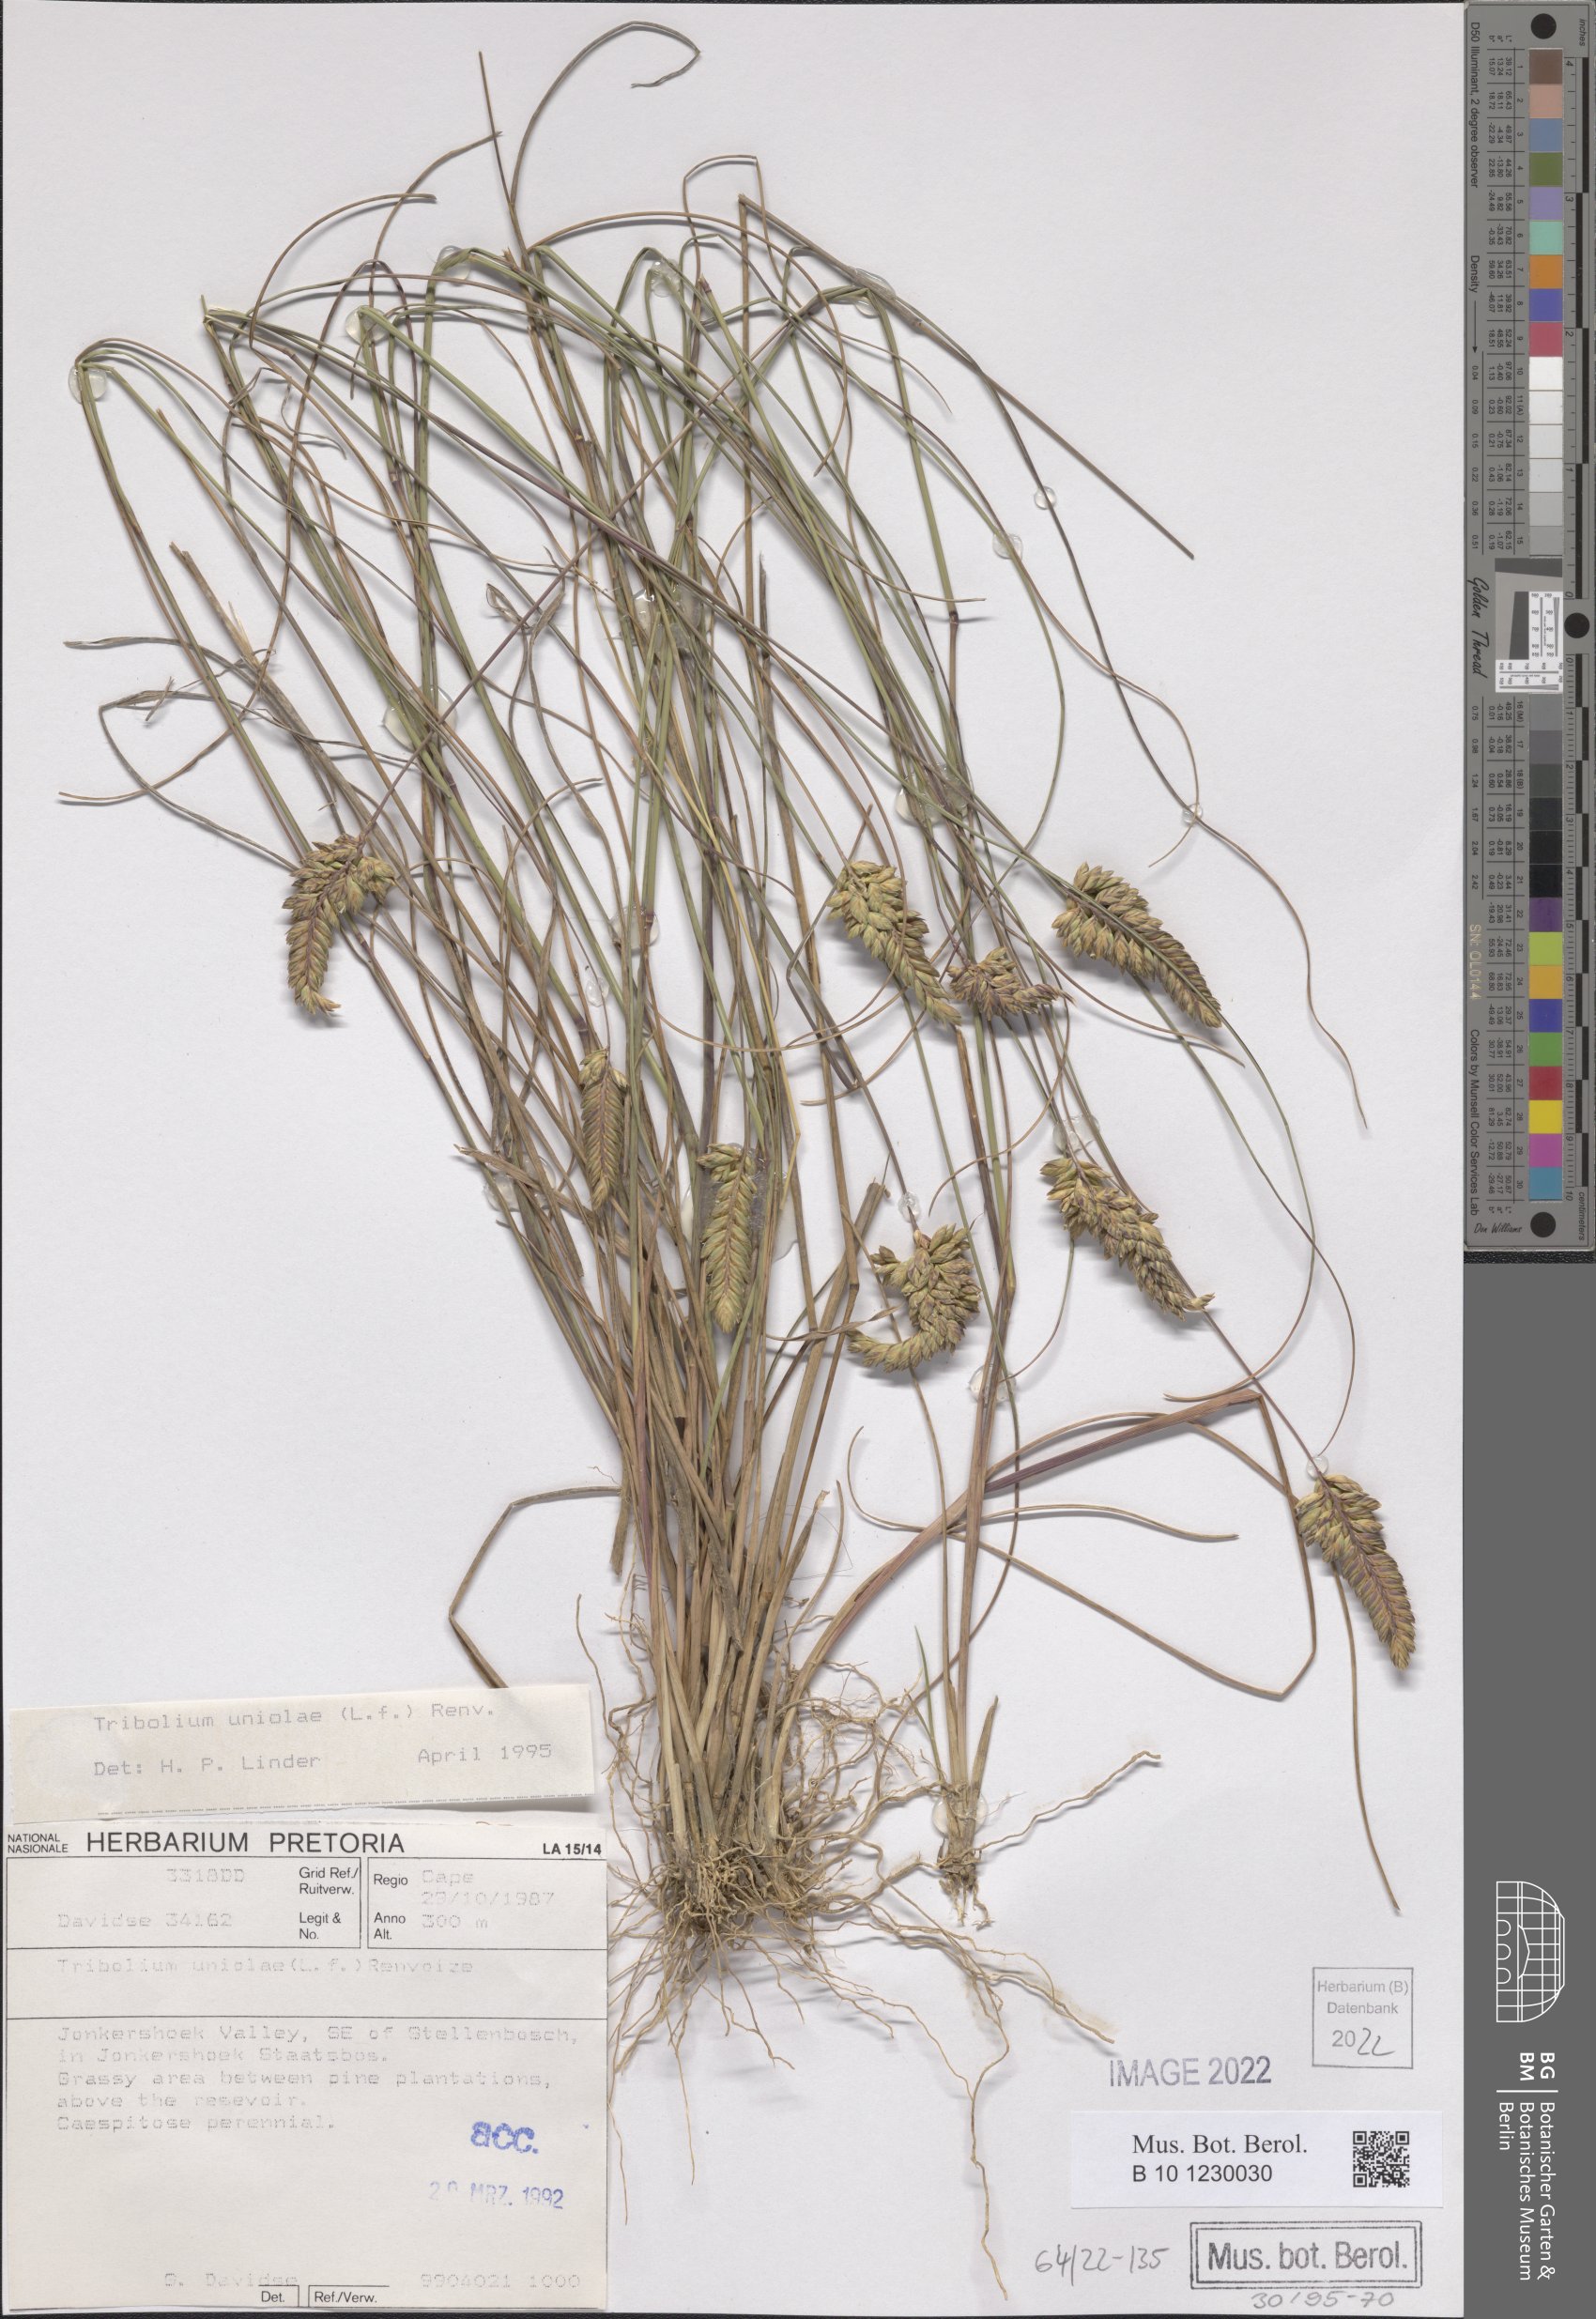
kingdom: Plantae
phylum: Tracheophyta
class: Liliopsida
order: Poales
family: Poaceae
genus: Tribolium
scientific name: Tribolium uniolae
